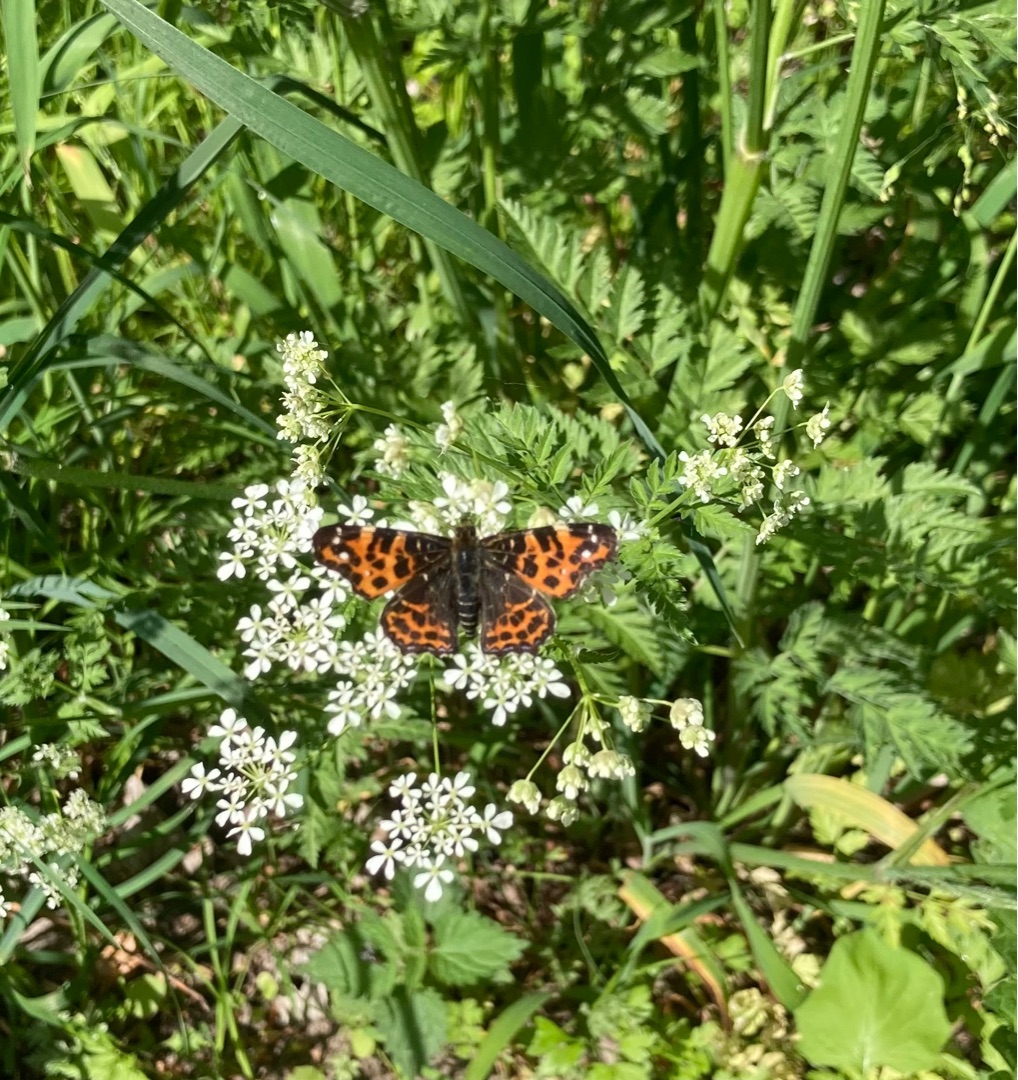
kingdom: Animalia
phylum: Arthropoda
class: Insecta
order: Lepidoptera
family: Nymphalidae
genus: Araschnia
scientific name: Araschnia levana
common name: Nældesommerfugl
